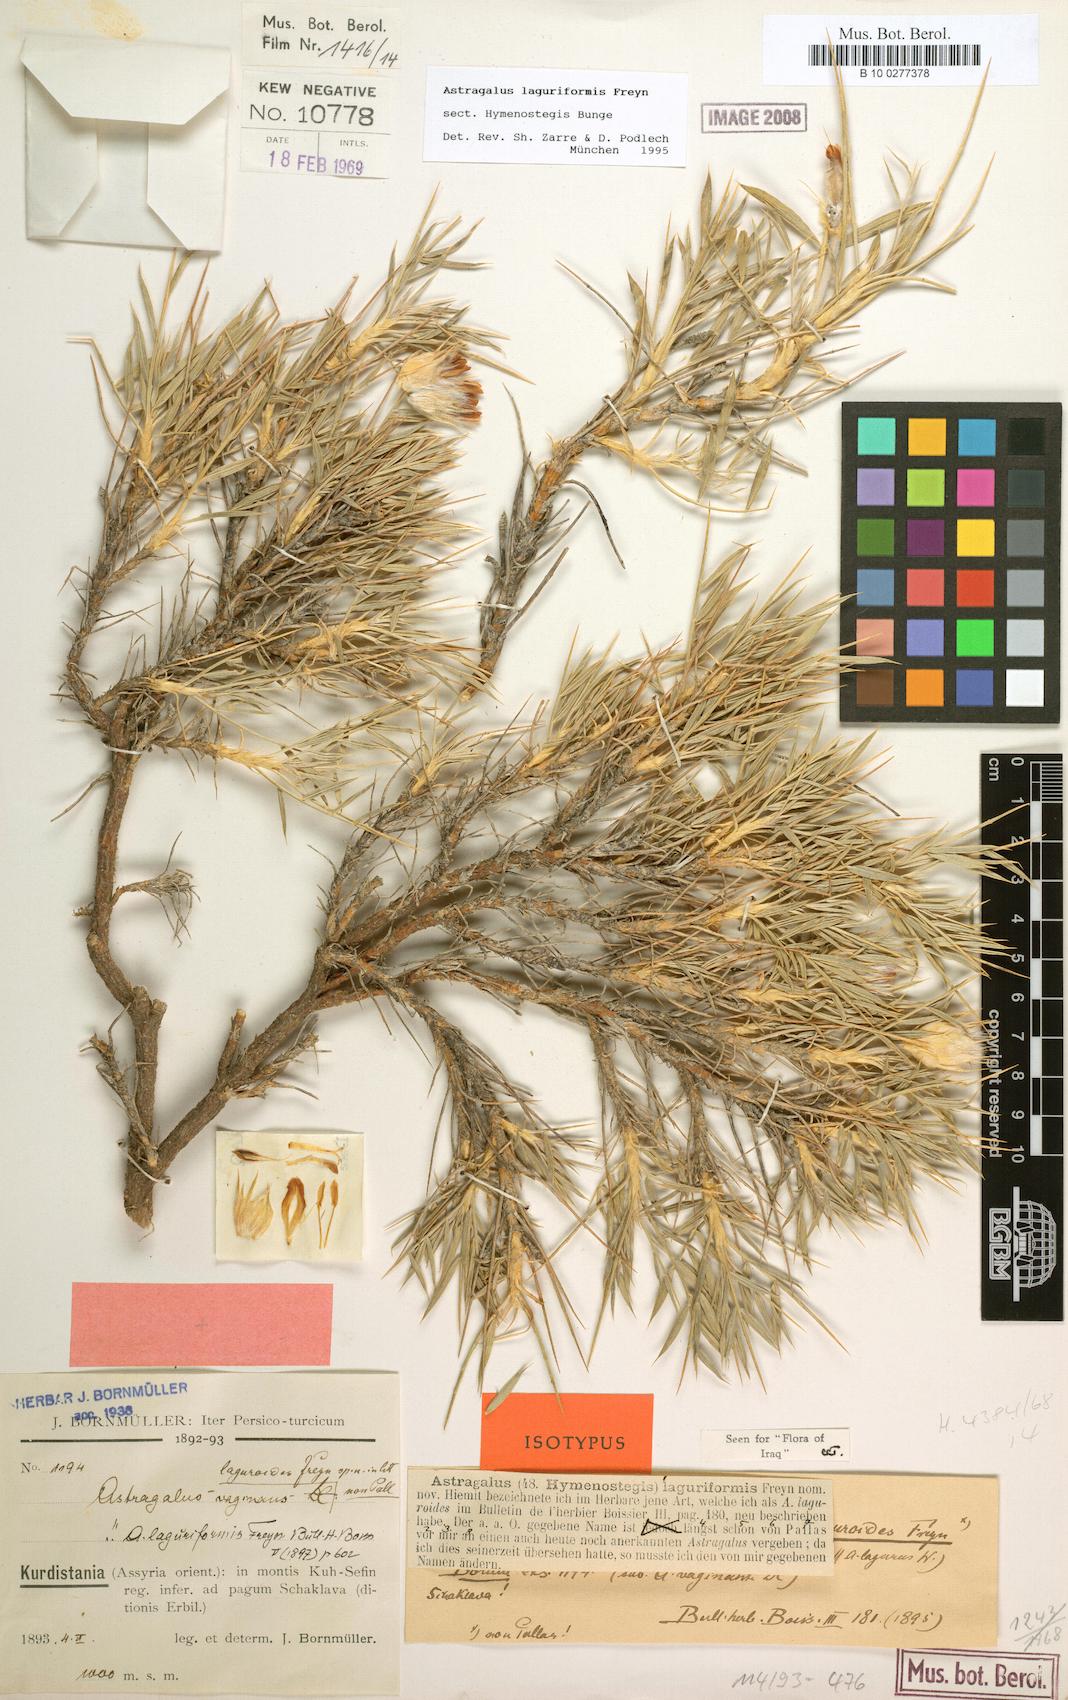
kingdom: Plantae
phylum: Tracheophyta
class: Magnoliopsida
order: Fabales
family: Fabaceae
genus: Astragalus
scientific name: Astragalus laguriformis
